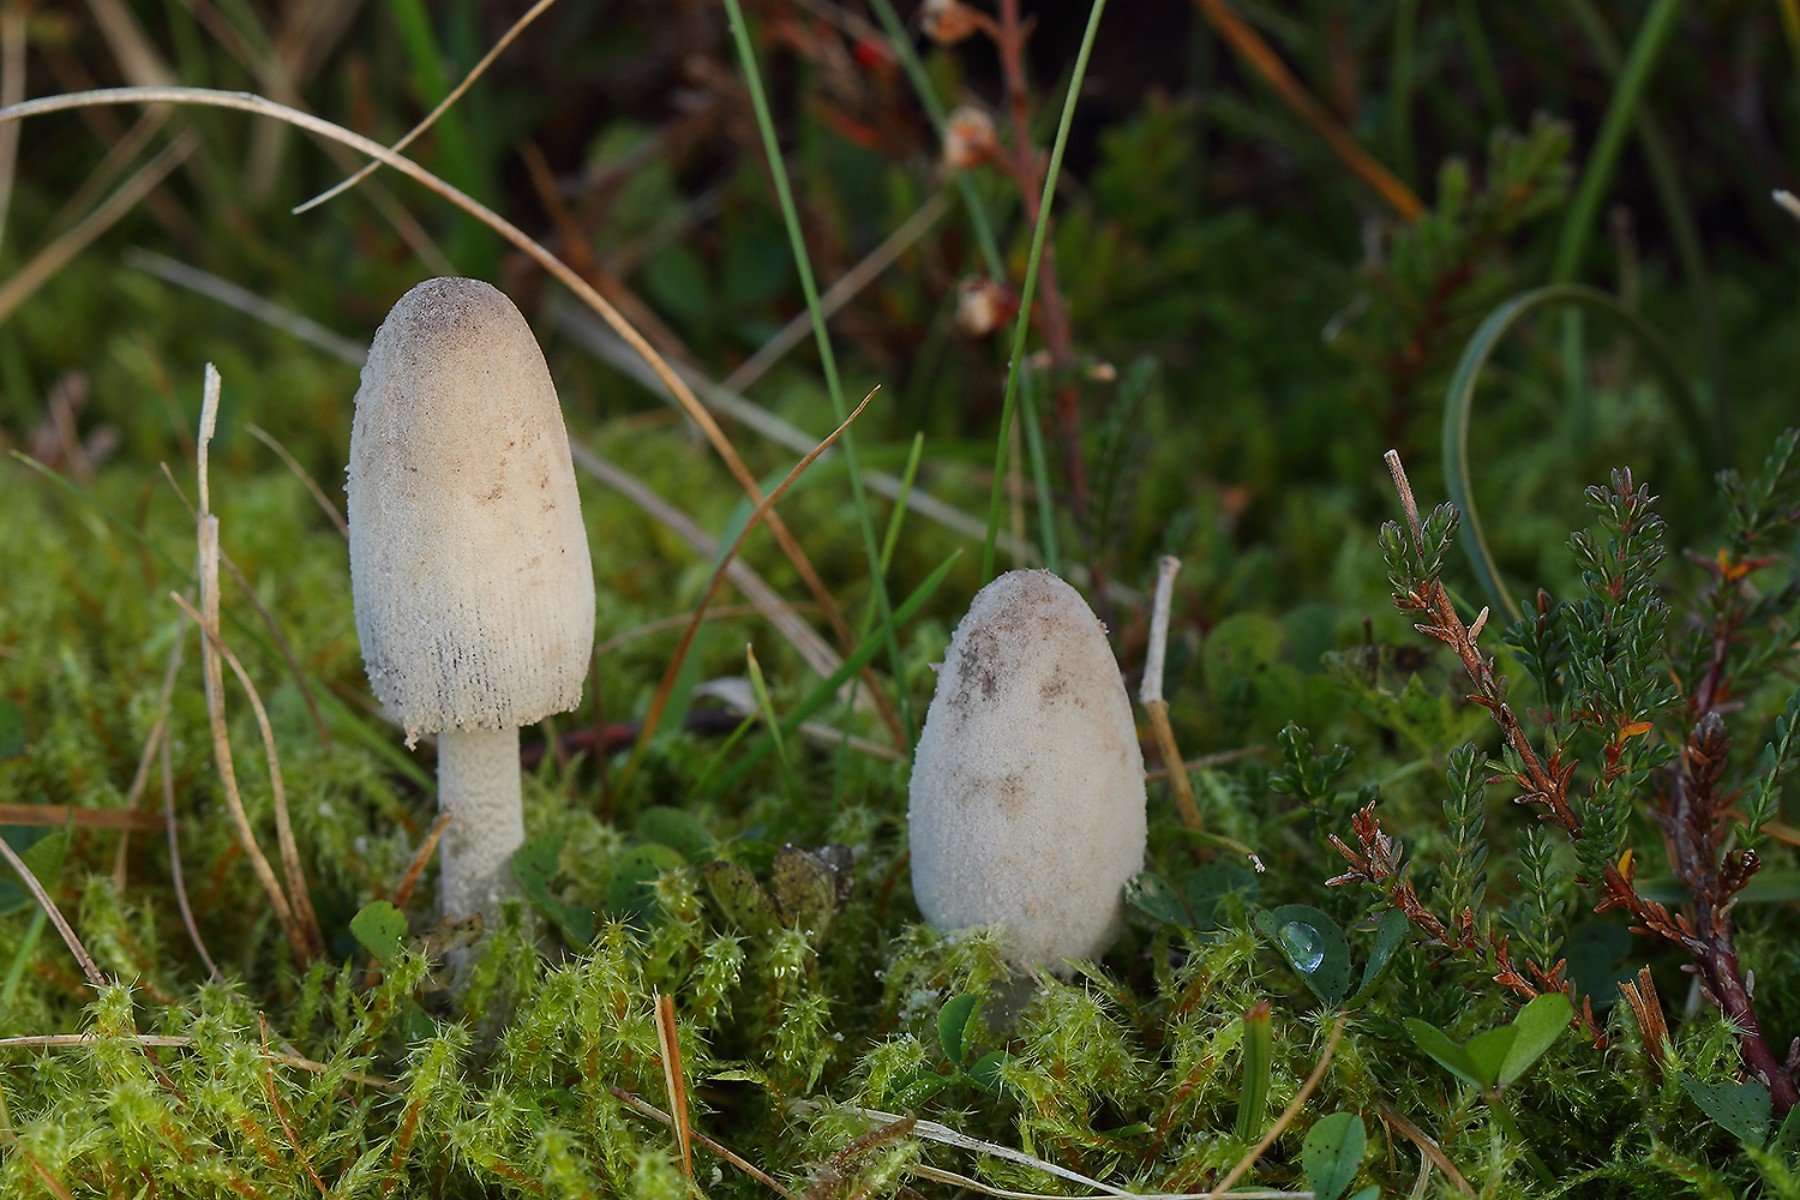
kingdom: Fungi
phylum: Basidiomycota
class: Agaricomycetes
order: Agaricales
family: Psathyrellaceae
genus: Coprinopsis
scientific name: Coprinopsis semitalis
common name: gråpudret blækhat
